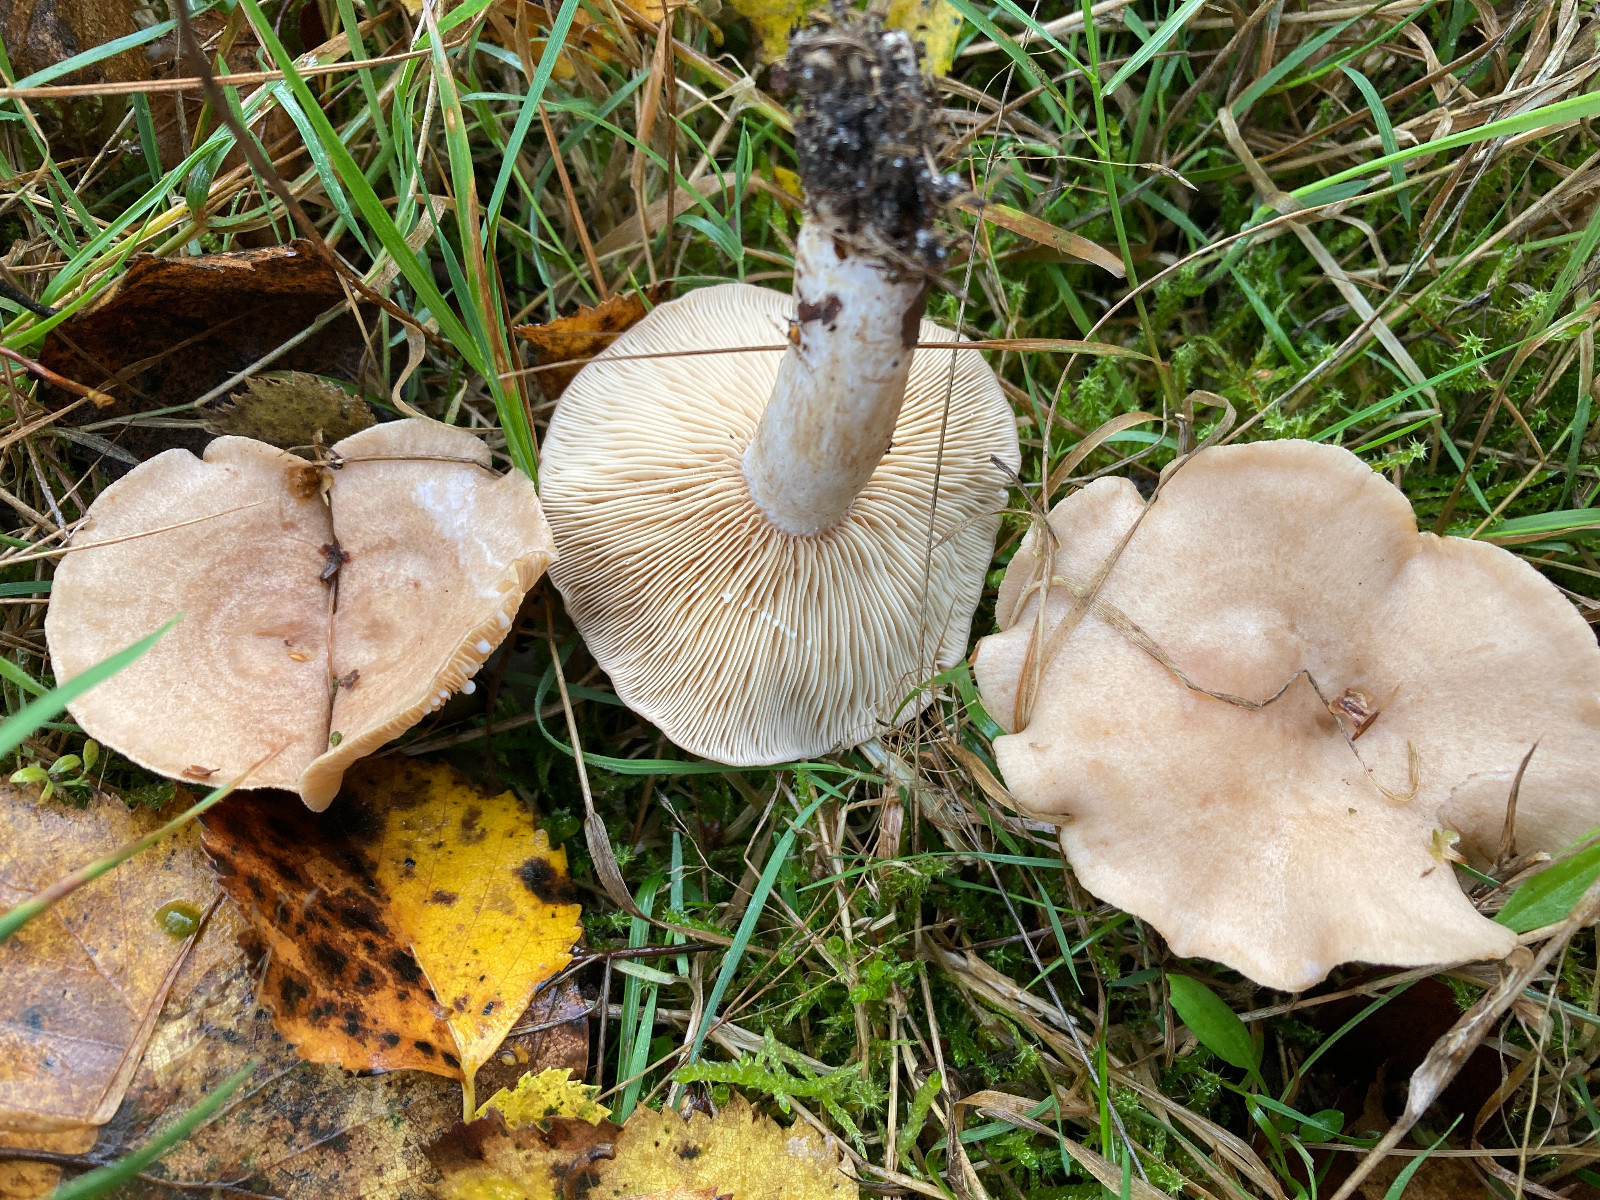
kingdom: Fungi
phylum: Basidiomycota
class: Agaricomycetes
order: Russulales
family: Russulaceae
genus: Lactarius
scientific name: Lactarius glyciosmus
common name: kokos-mælkehat
